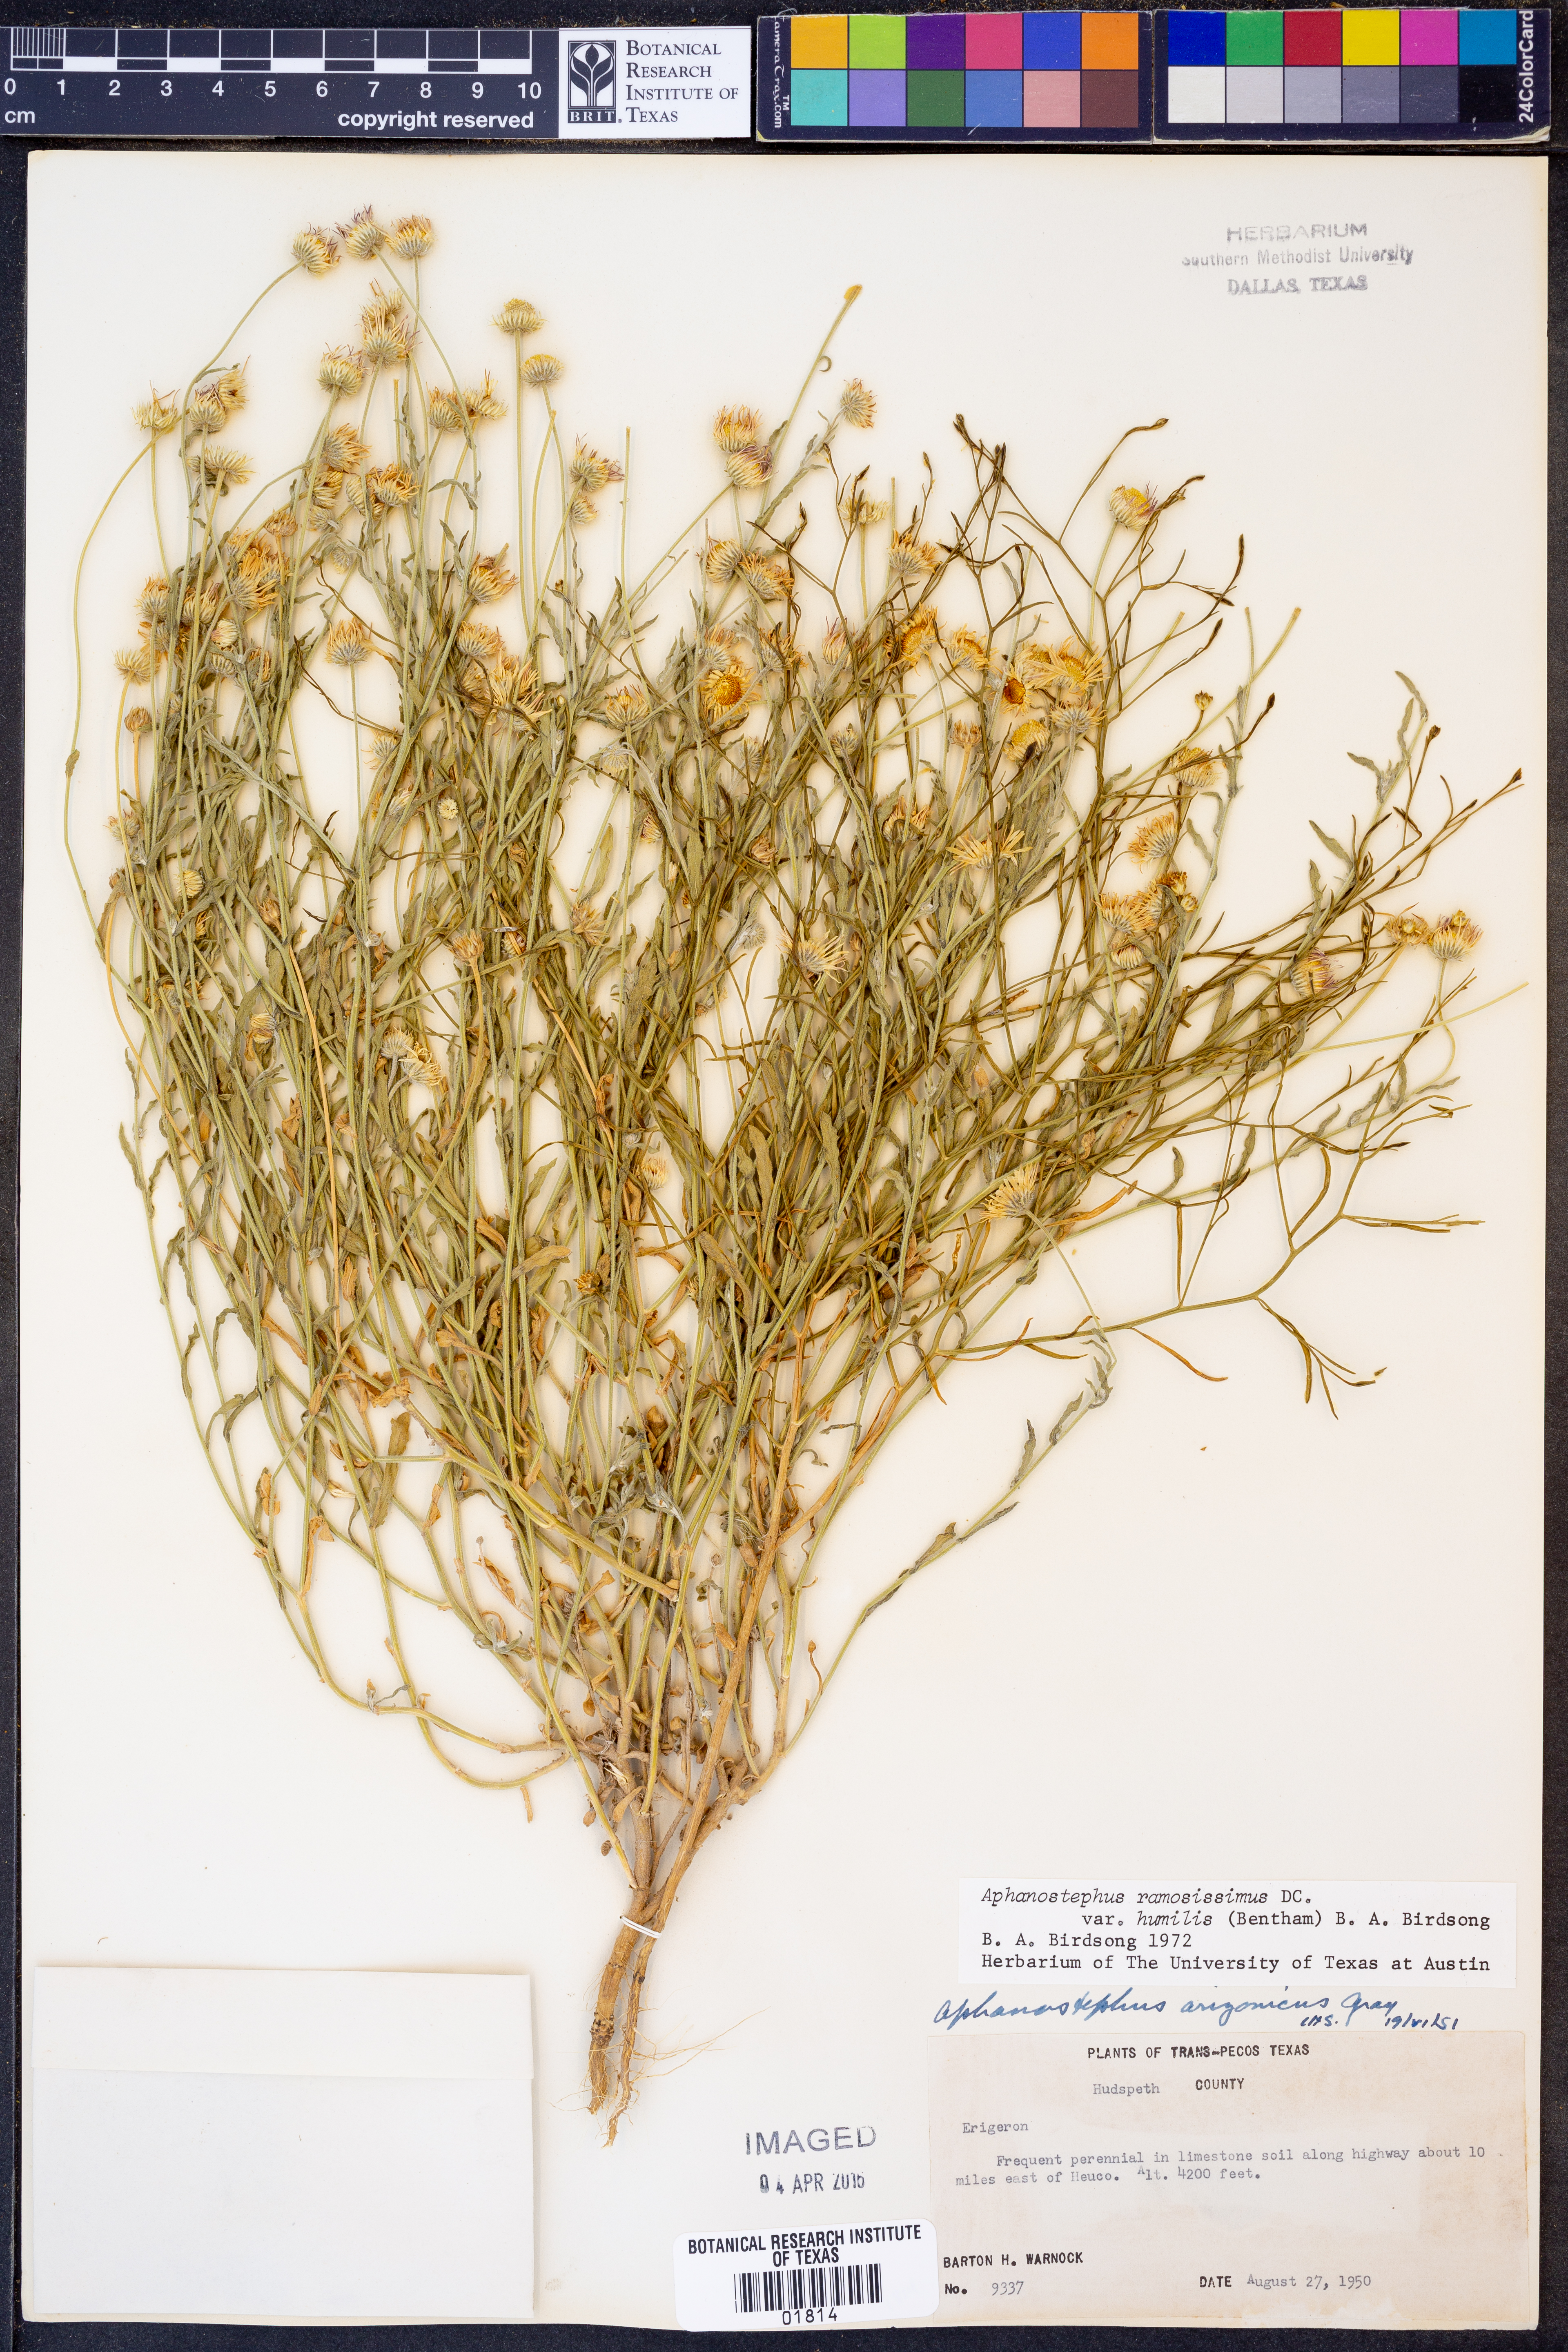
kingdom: Plantae
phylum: Tracheophyta
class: Magnoliopsida
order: Asterales
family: Asteraceae
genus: Aphanostephus
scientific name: Aphanostephus ramosissimus
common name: Plains lazy daisy
